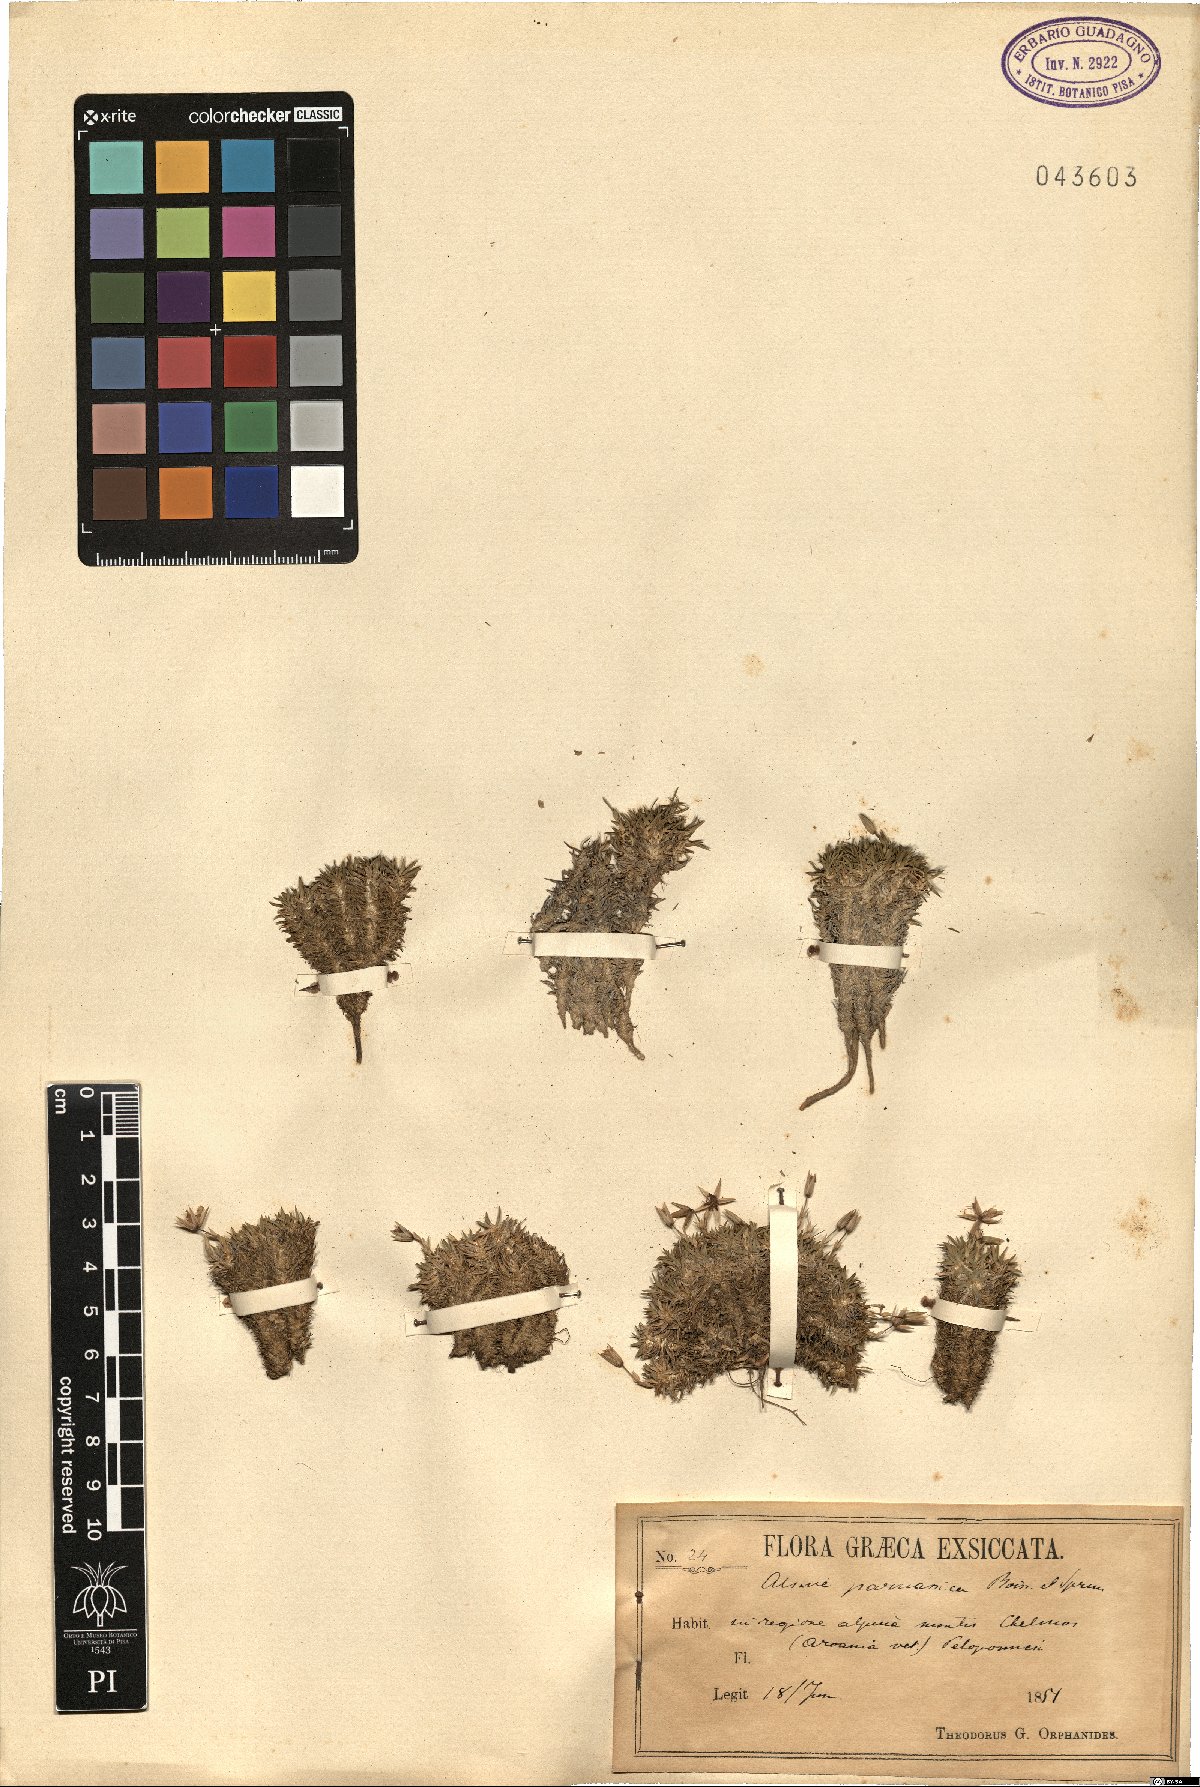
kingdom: Plantae
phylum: Tracheophyta
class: Magnoliopsida
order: Caryophyllales
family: Caryophyllaceae
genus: Alsine
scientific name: Alsine
